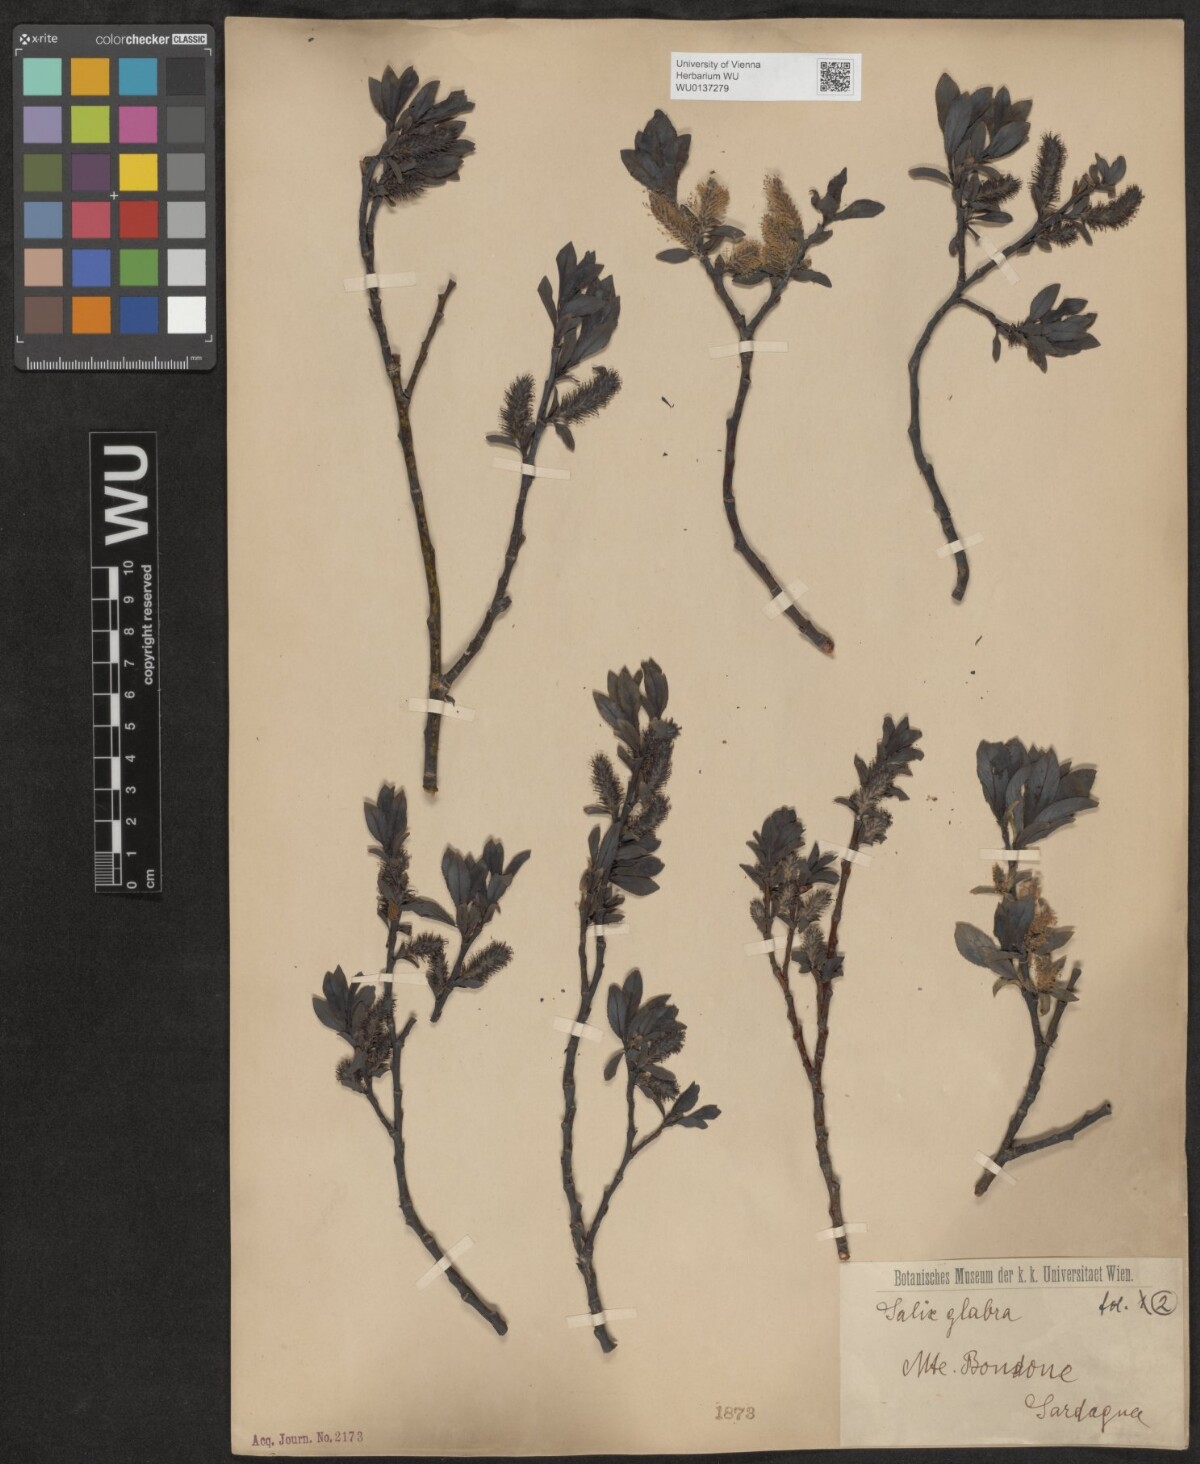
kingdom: Plantae
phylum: Tracheophyta
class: Magnoliopsida
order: Malpighiales
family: Salicaceae
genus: Salix
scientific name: Salix glabra
